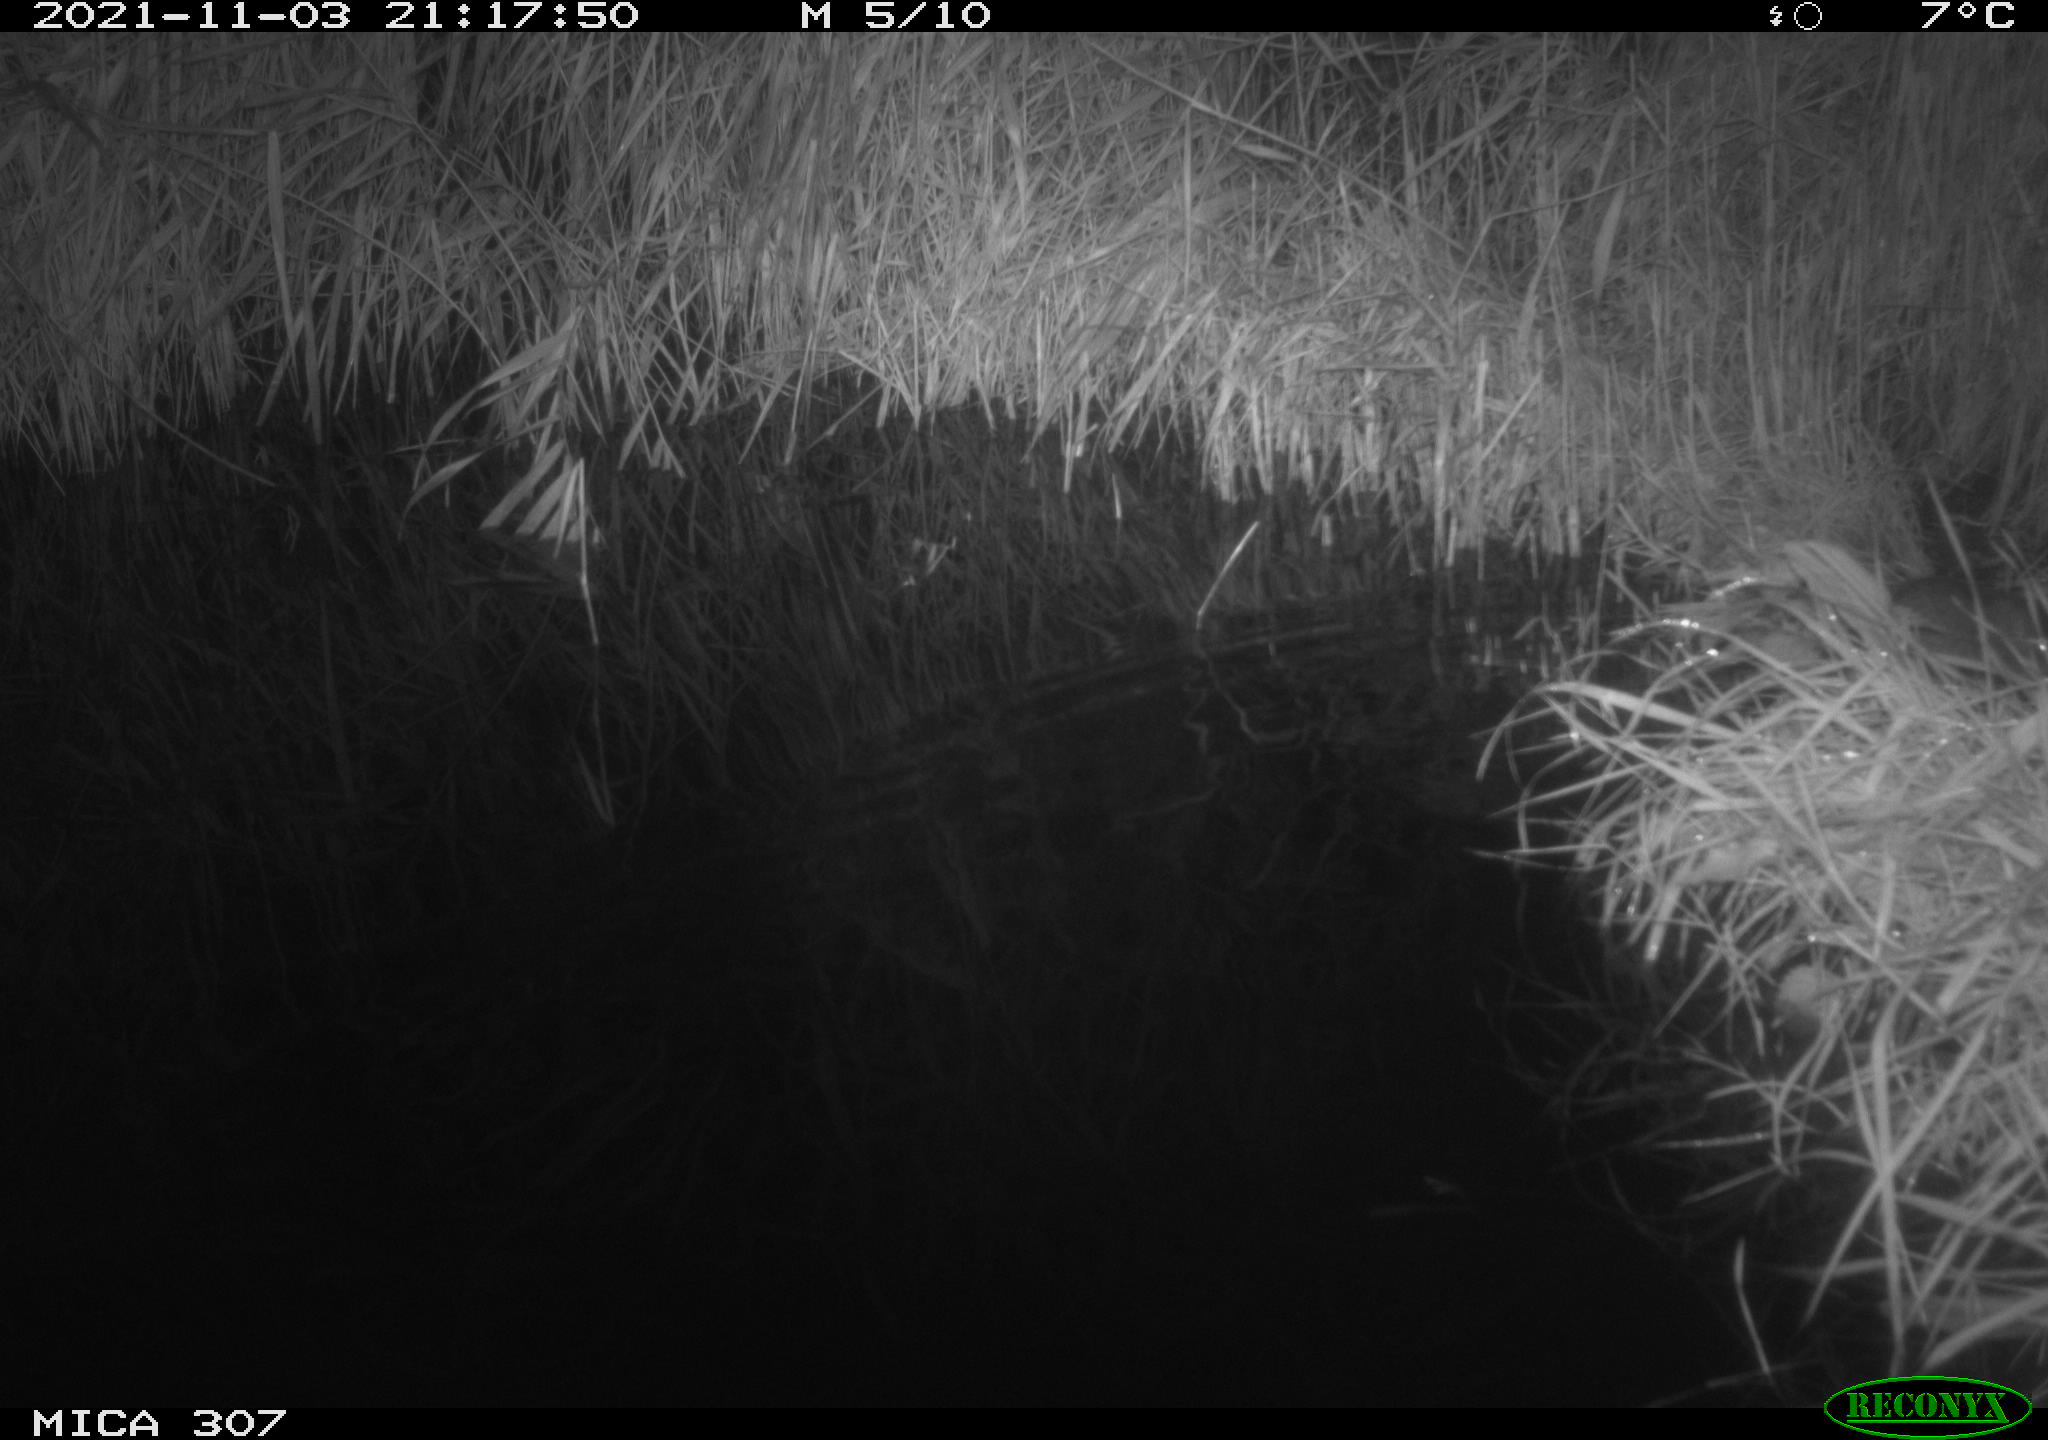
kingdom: Animalia
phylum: Chordata
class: Mammalia
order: Rodentia
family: Muridae
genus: Rattus
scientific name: Rattus norvegicus
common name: Brown rat
